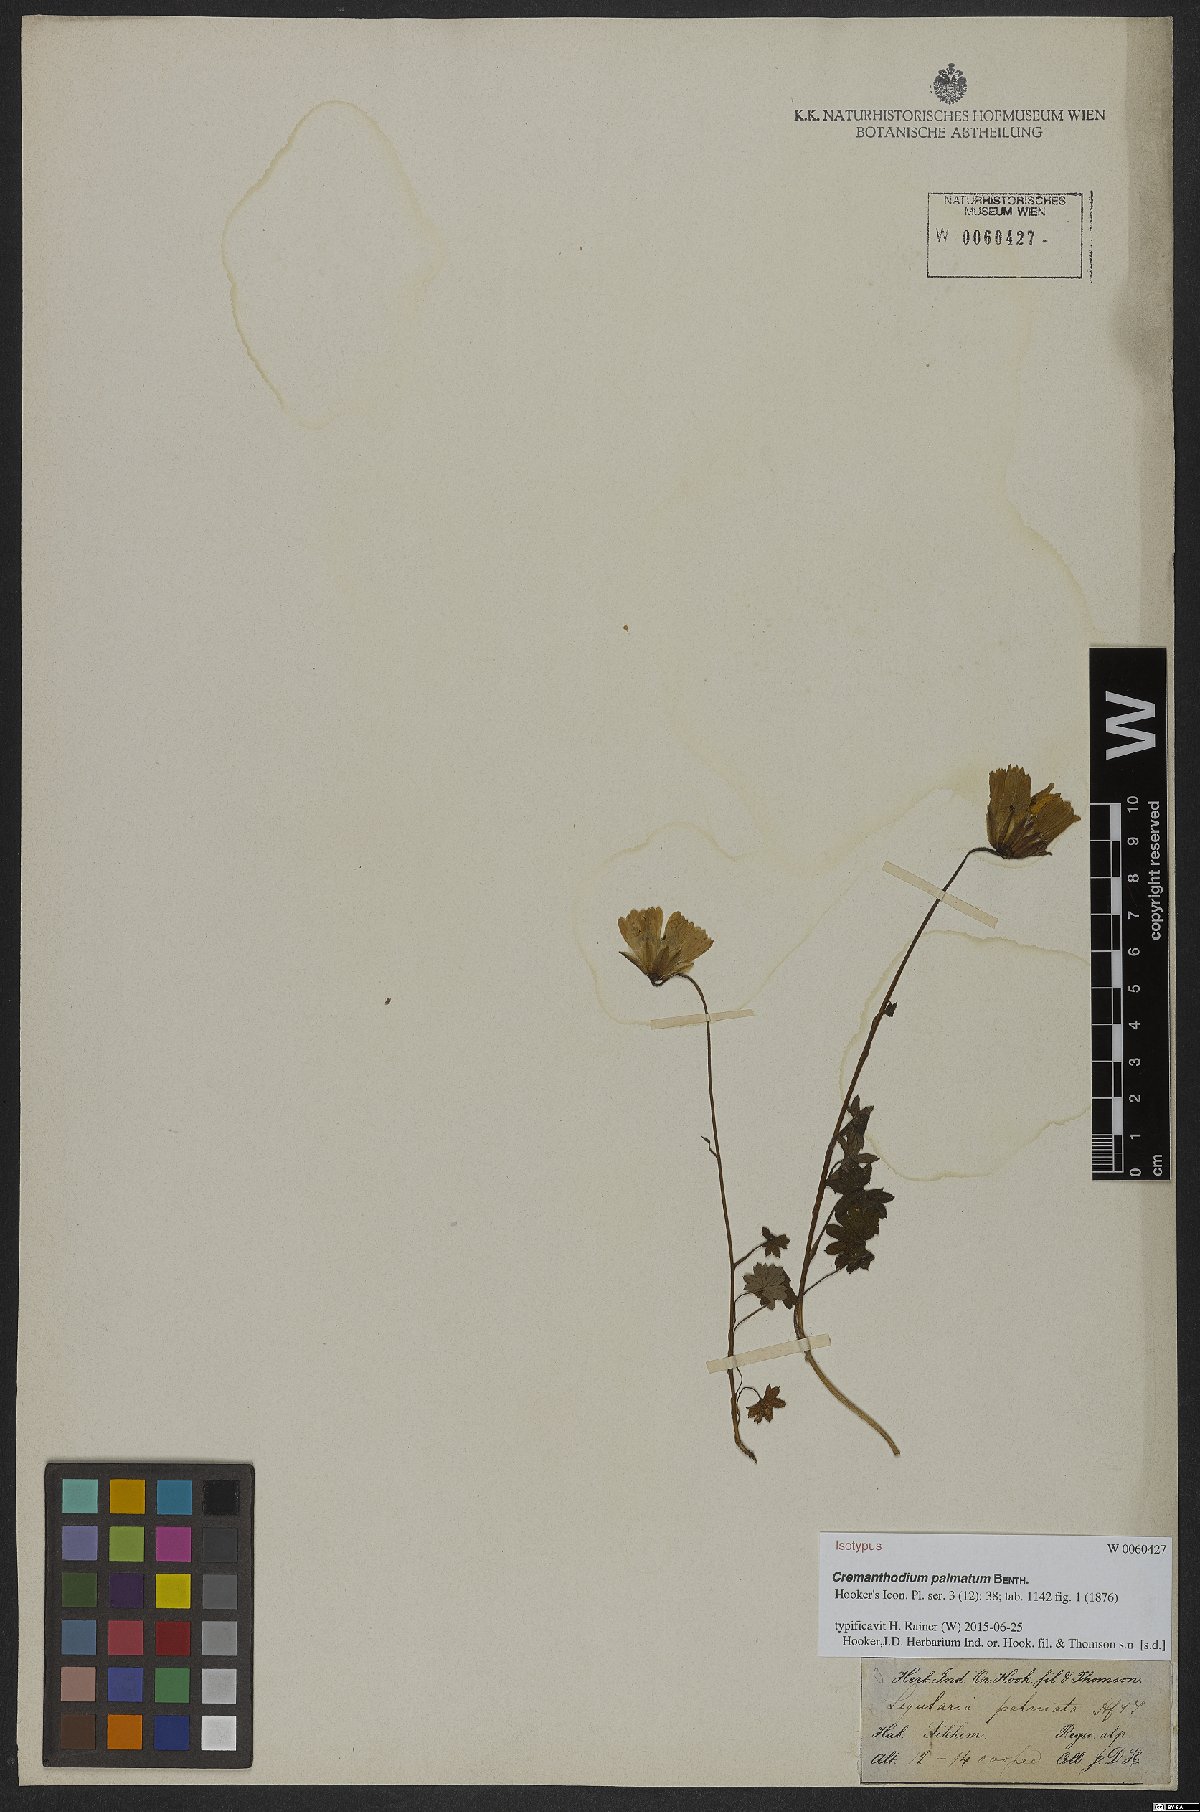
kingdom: Plantae
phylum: Tracheophyta
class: Magnoliopsida
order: Asterales
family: Asteraceae
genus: Cremanthodium
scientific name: Cremanthodium palmatum
